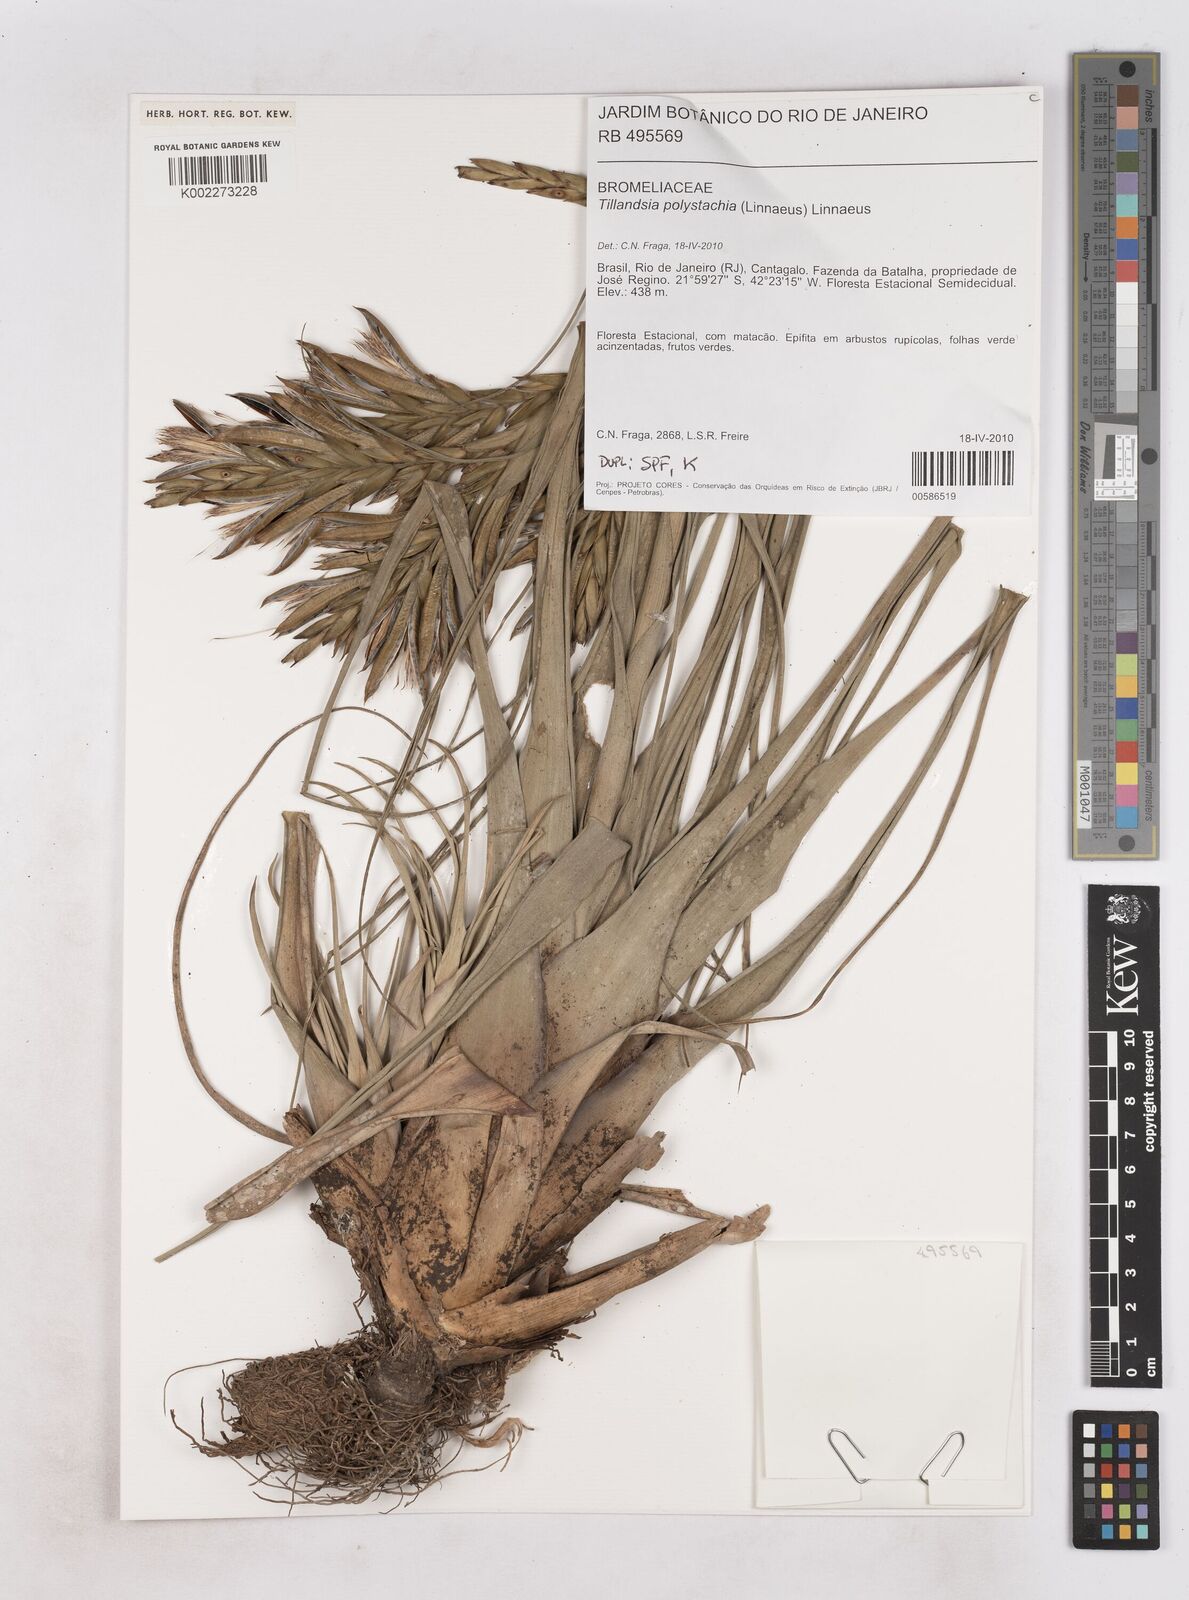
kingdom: Plantae
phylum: Tracheophyta
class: Liliopsida
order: Poales
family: Bromeliaceae
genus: Tillandsia
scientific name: Tillandsia polystachia
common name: Airplant
